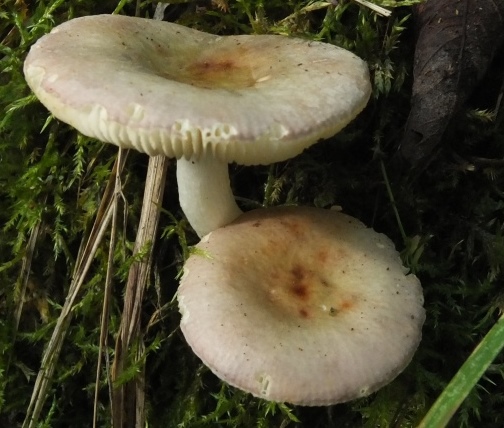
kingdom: Fungi
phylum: Basidiomycota
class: Agaricomycetes
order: Russulales
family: Russulaceae
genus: Russula
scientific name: Russula versicolor
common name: foranderlig skørhat
